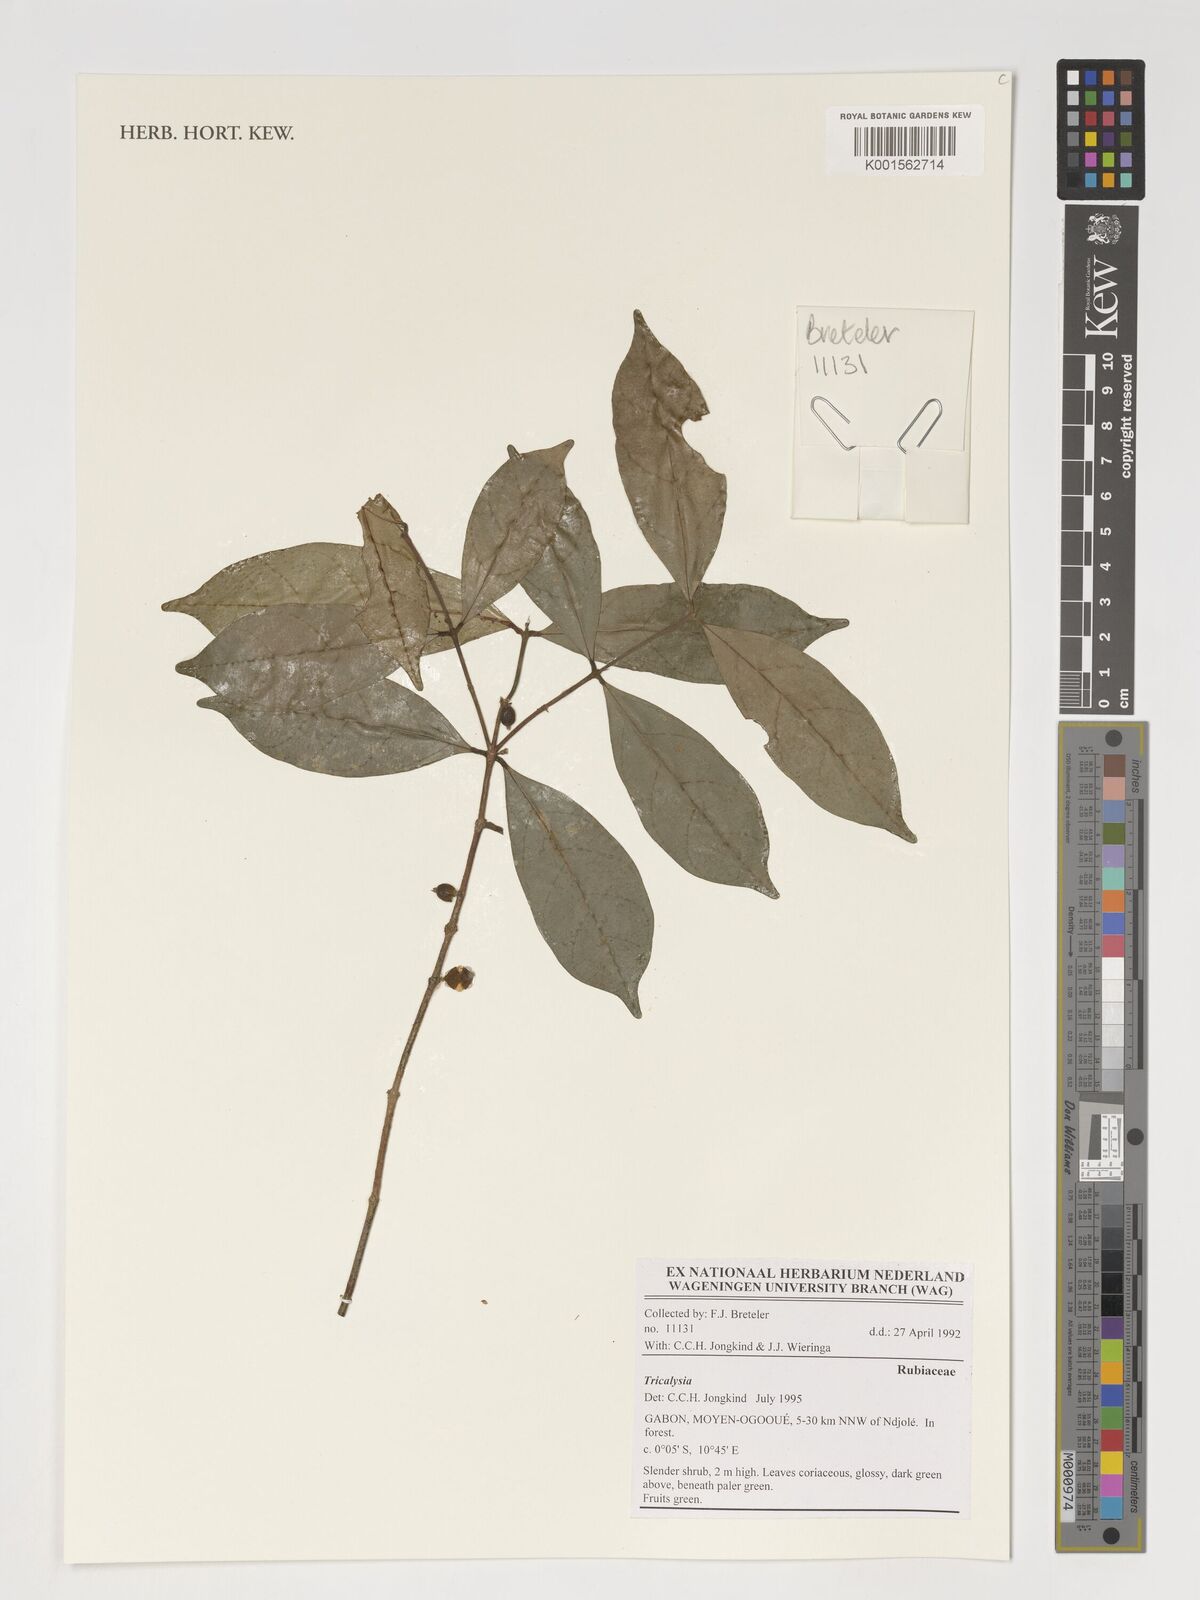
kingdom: Plantae
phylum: Tracheophyta
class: Magnoliopsida
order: Gentianales
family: Rubiaceae
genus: Tricalysia
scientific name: Tricalysia
